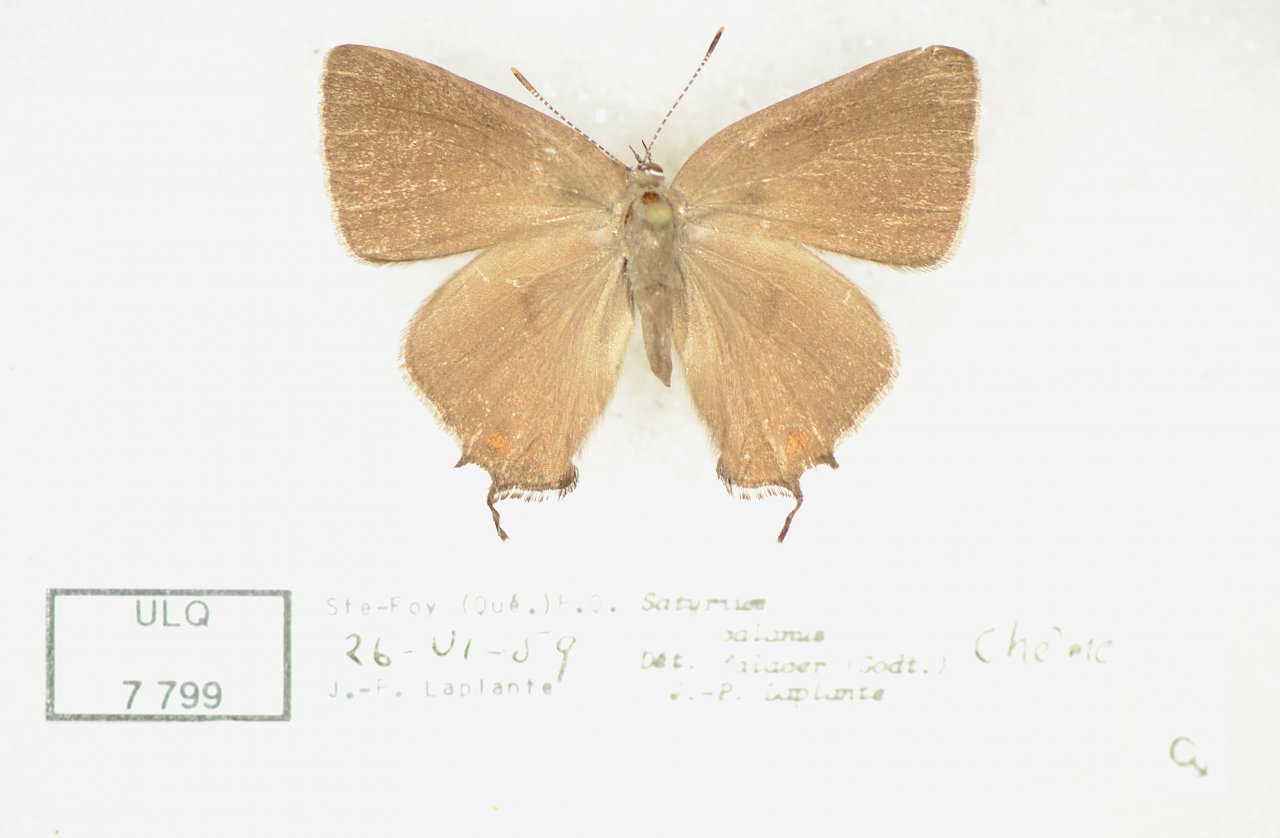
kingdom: Animalia
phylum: Arthropoda
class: Insecta
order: Lepidoptera
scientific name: Lepidoptera
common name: Butterflies
